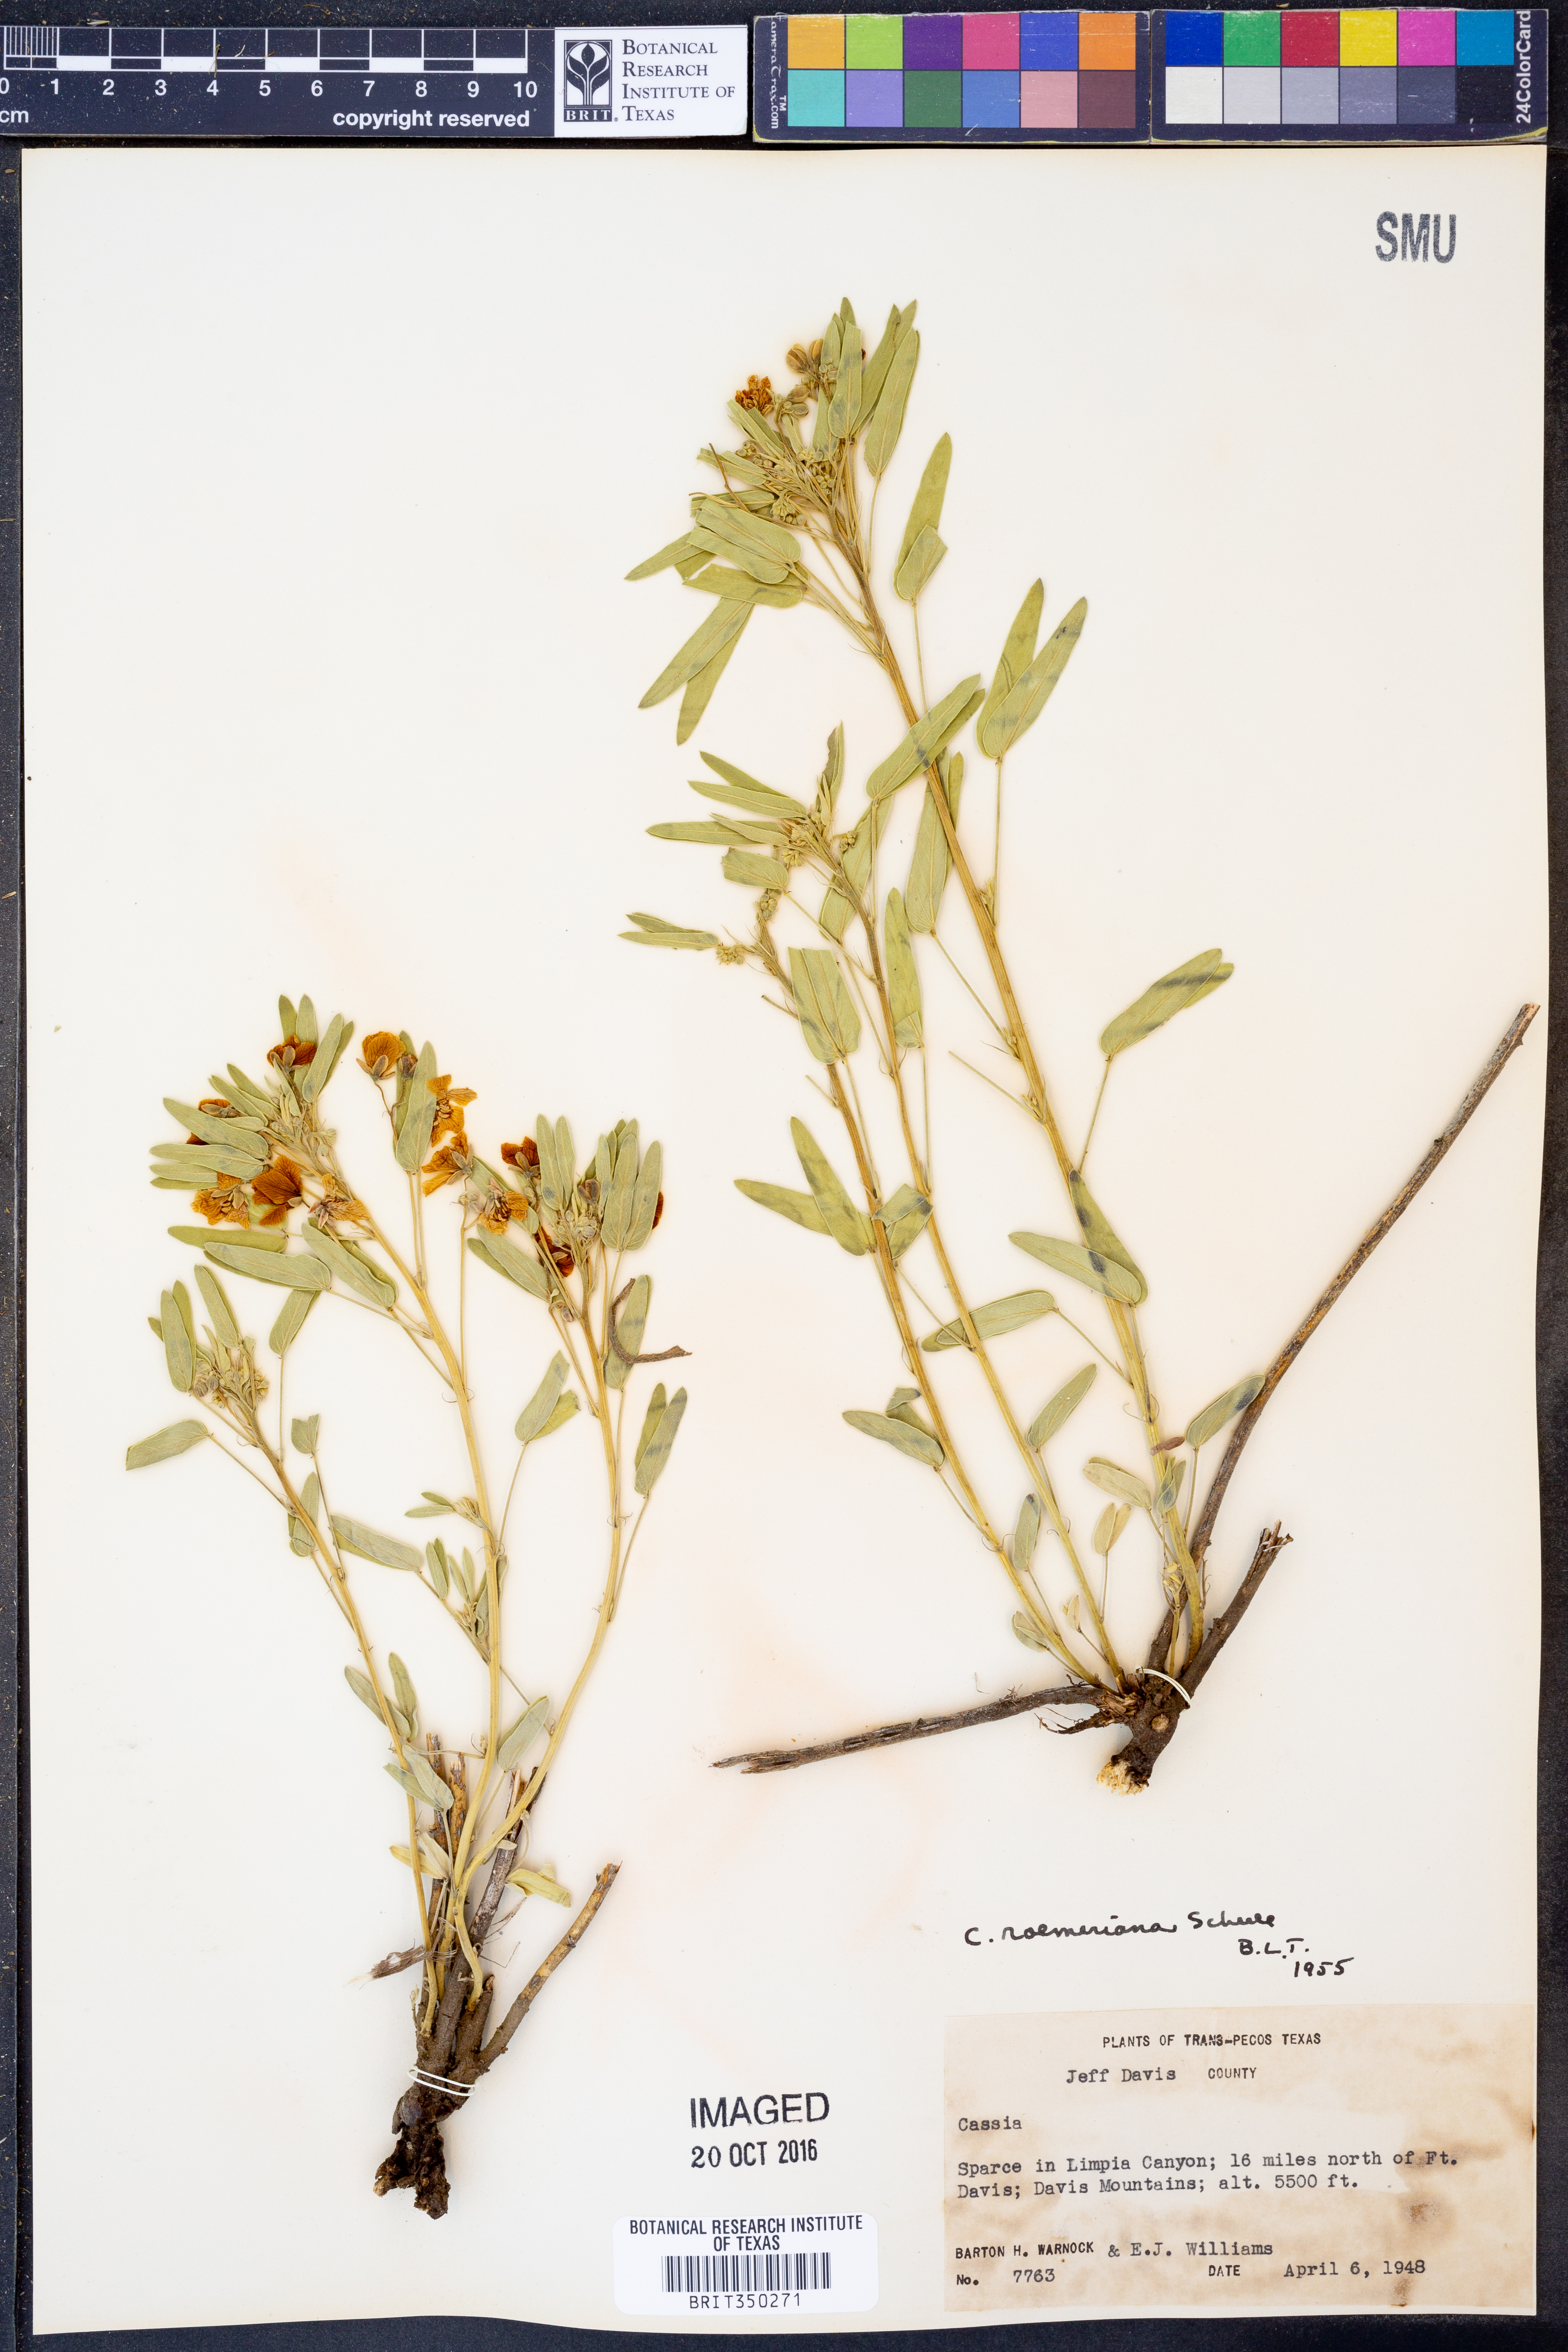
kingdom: Plantae
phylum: Tracheophyta
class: Magnoliopsida
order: Fabales
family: Fabaceae
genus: Senna
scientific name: Senna roemeriana
